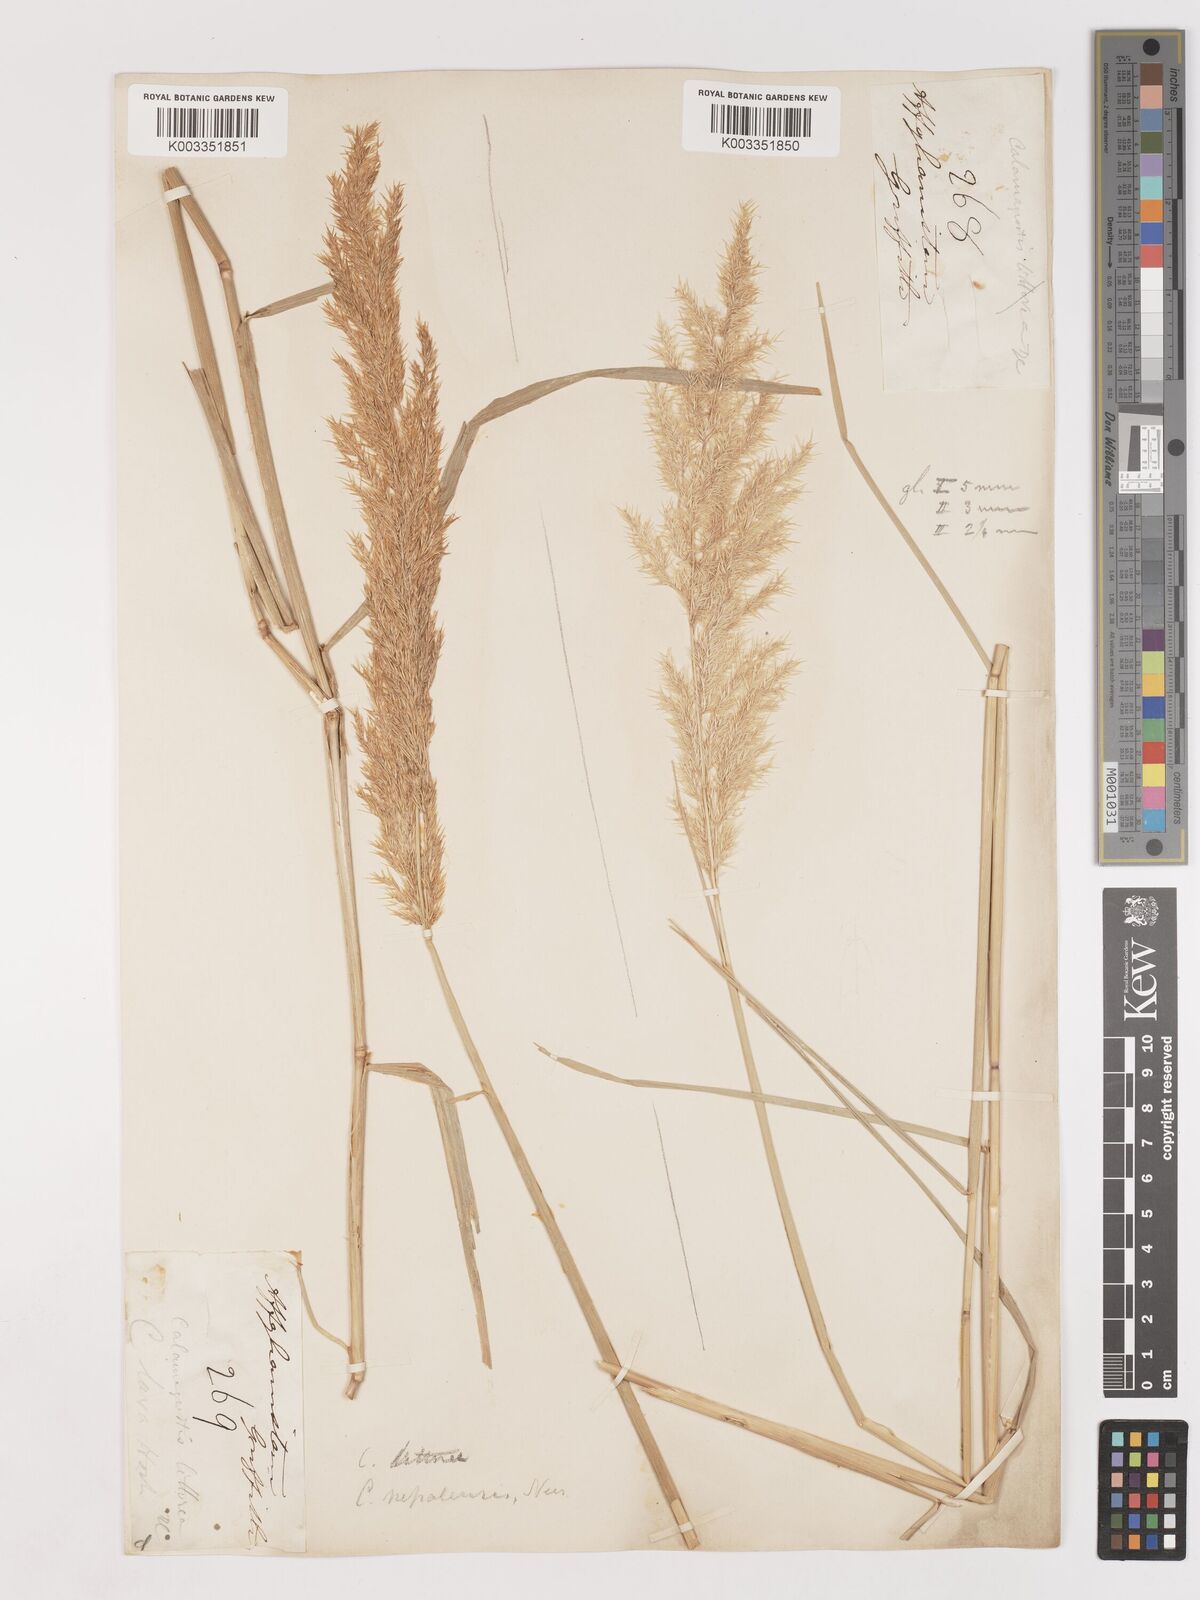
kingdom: Plantae
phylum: Tracheophyta
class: Liliopsida
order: Poales
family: Poaceae
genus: Calamagrostis
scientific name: Calamagrostis purpurea
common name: Scandinavian small-reed
